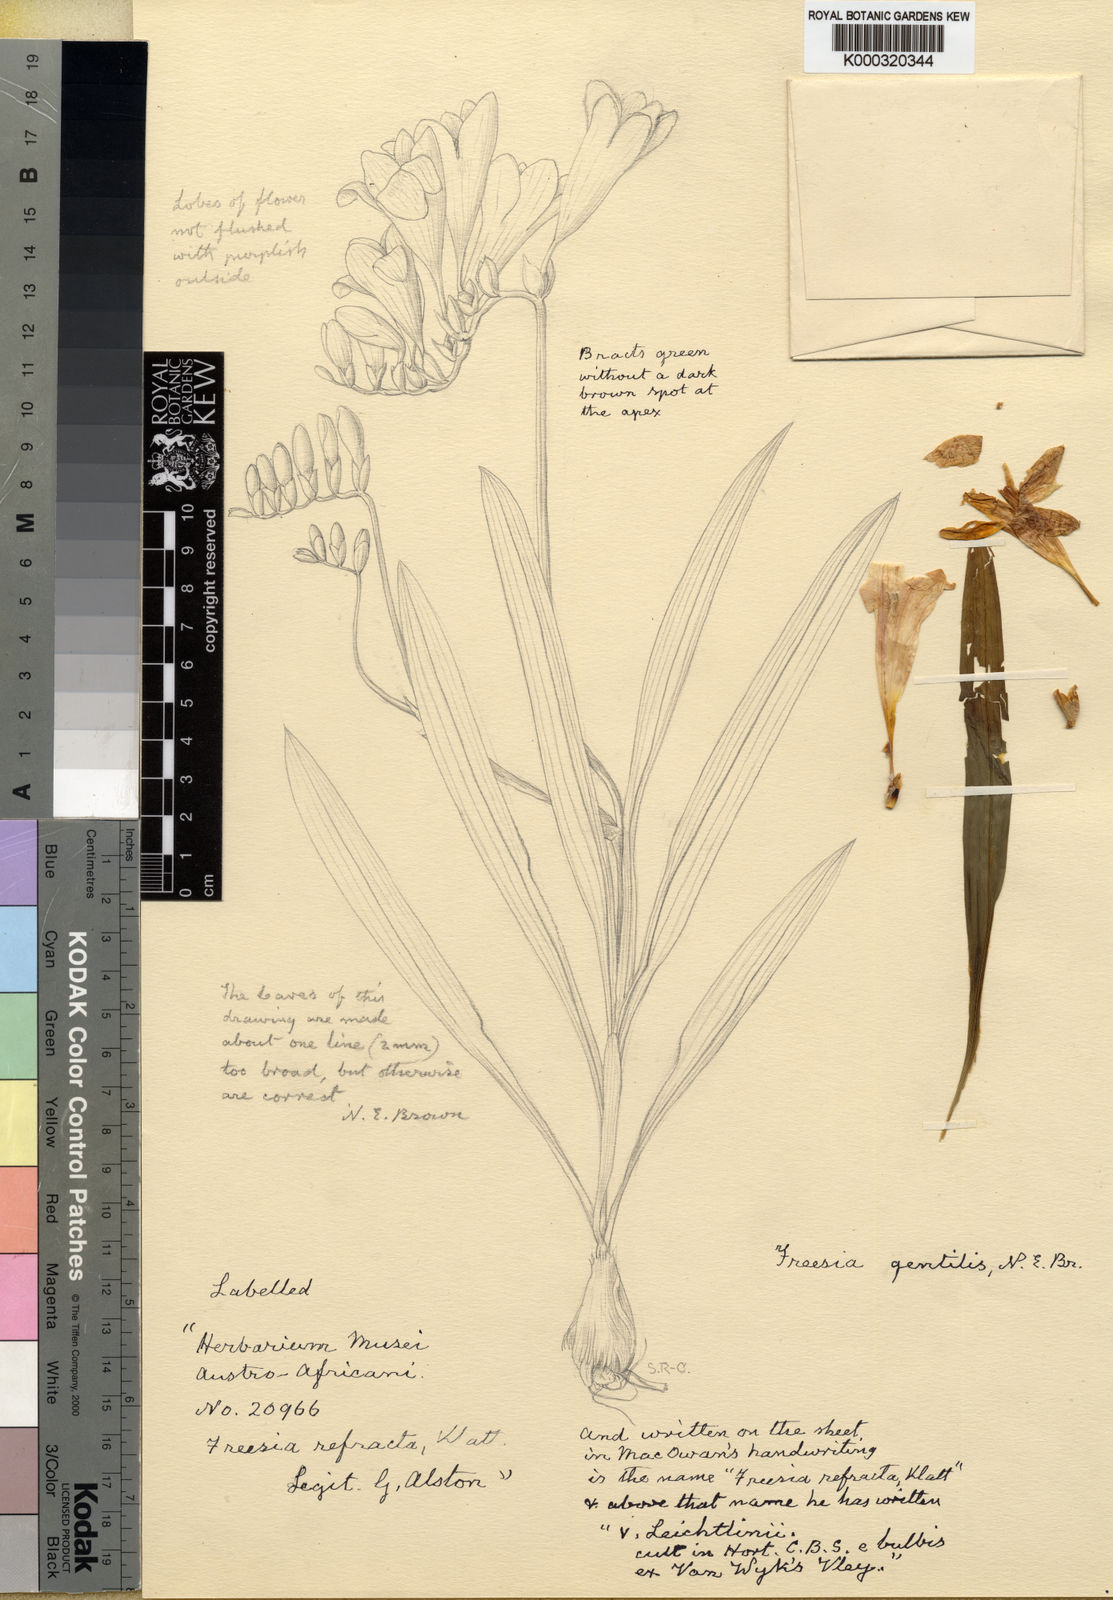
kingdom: Plantae
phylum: Tracheophyta
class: Liliopsida
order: Asparagales
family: Iridaceae
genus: Freesia
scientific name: Freesia leichtlinii
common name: Freesia
